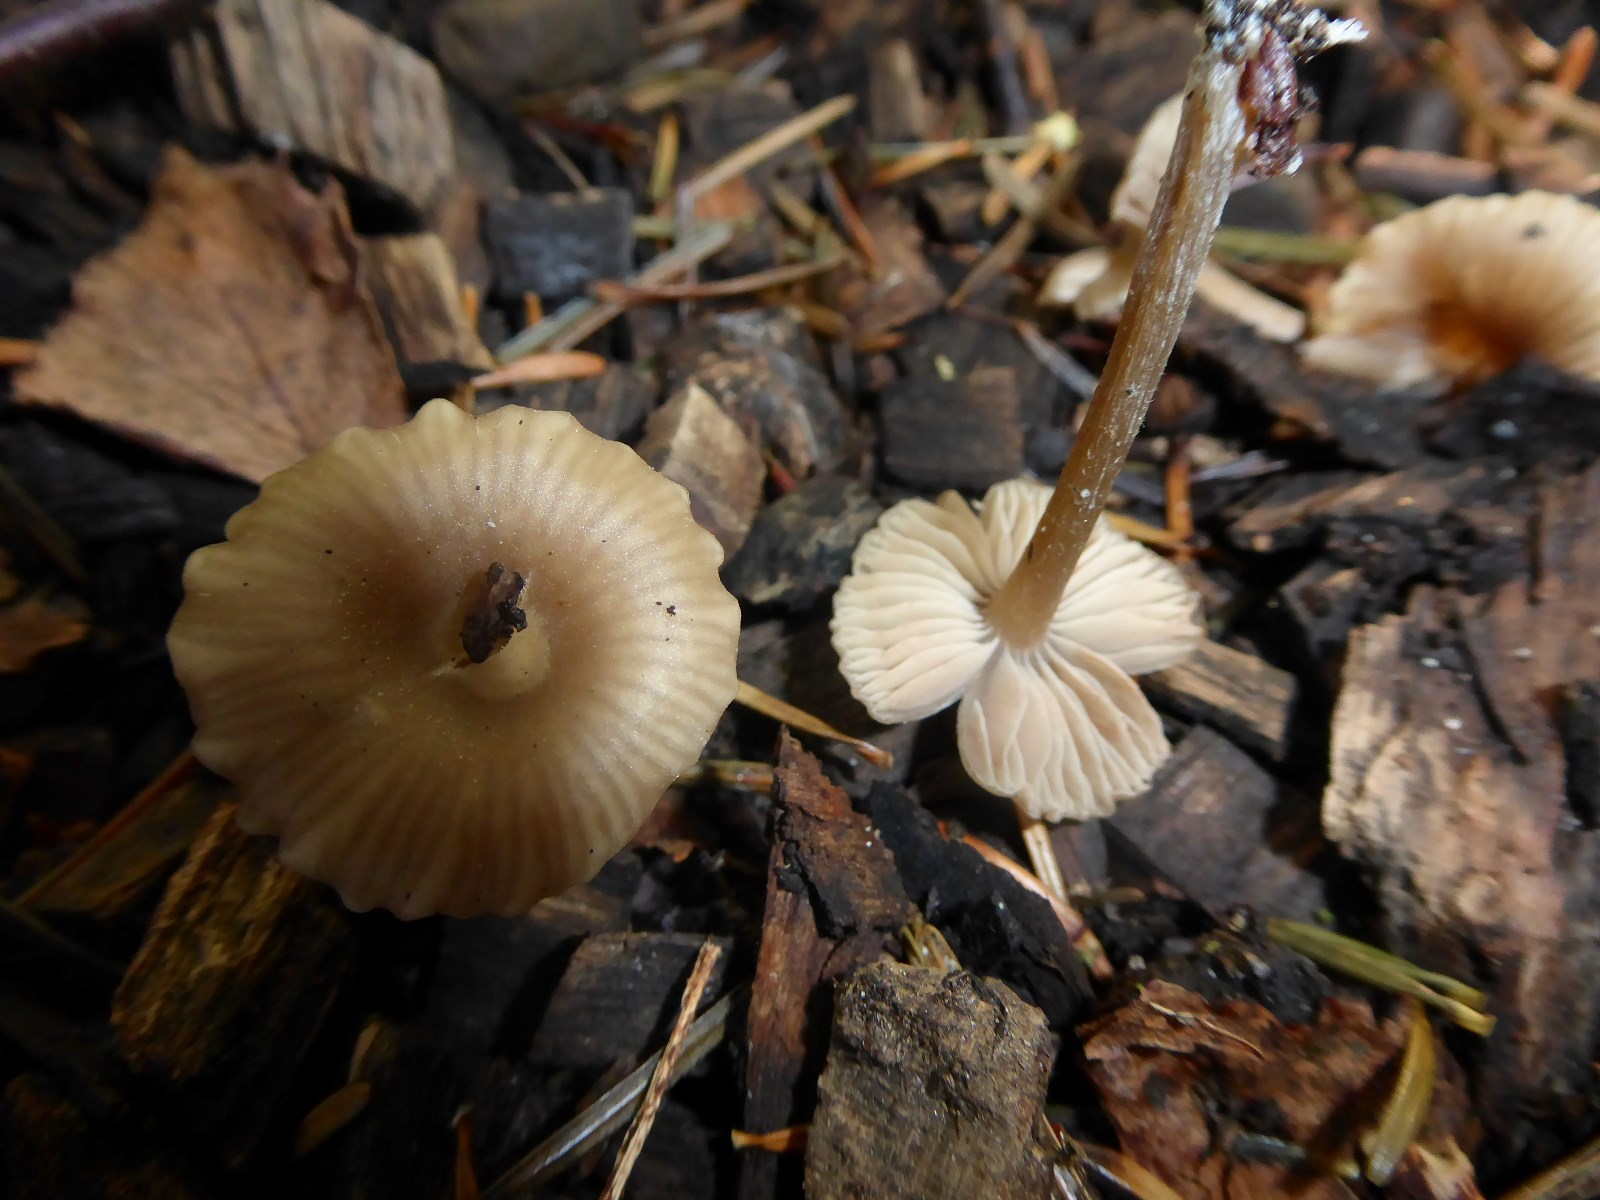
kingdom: Fungi
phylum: Basidiomycota
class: Agaricomycetes
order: Agaricales
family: Entolomataceae
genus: Entoloma
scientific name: Entoloma
